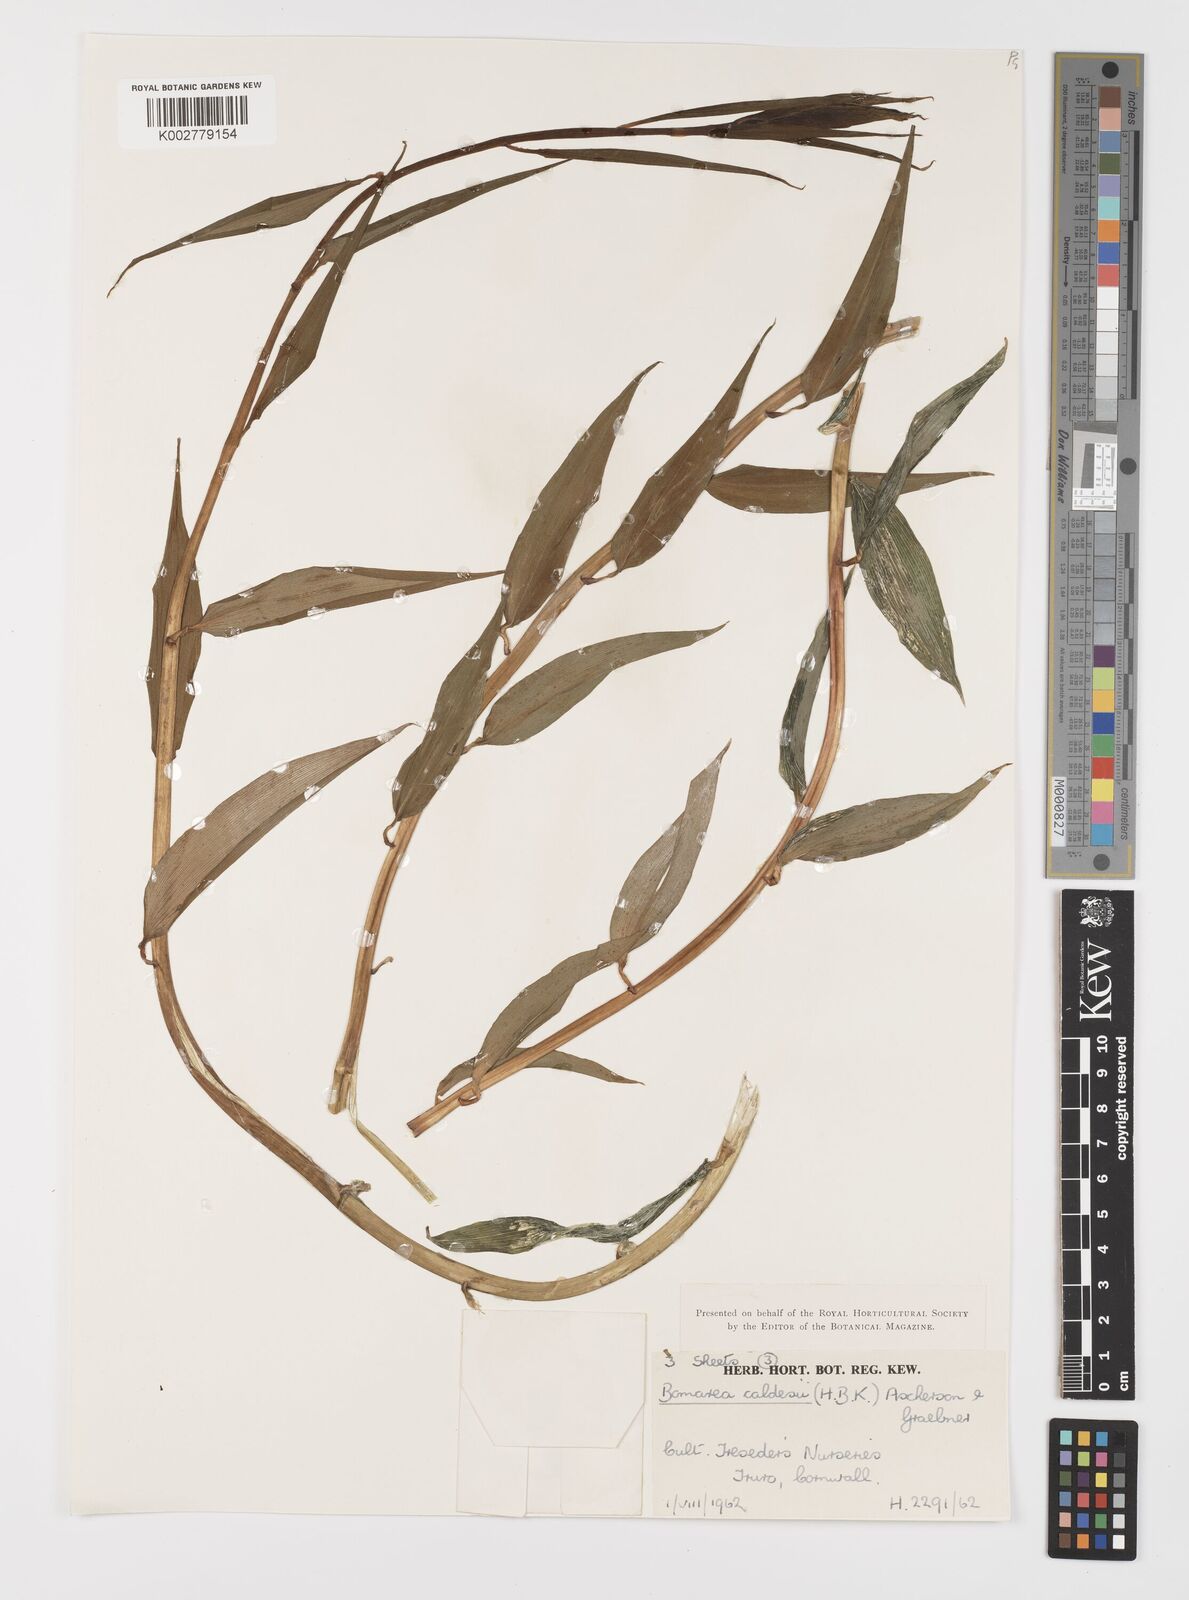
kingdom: Plantae
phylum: Tracheophyta
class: Liliopsida
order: Liliales
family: Alstroemeriaceae
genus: Bomarea
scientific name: Bomarea multiflora
